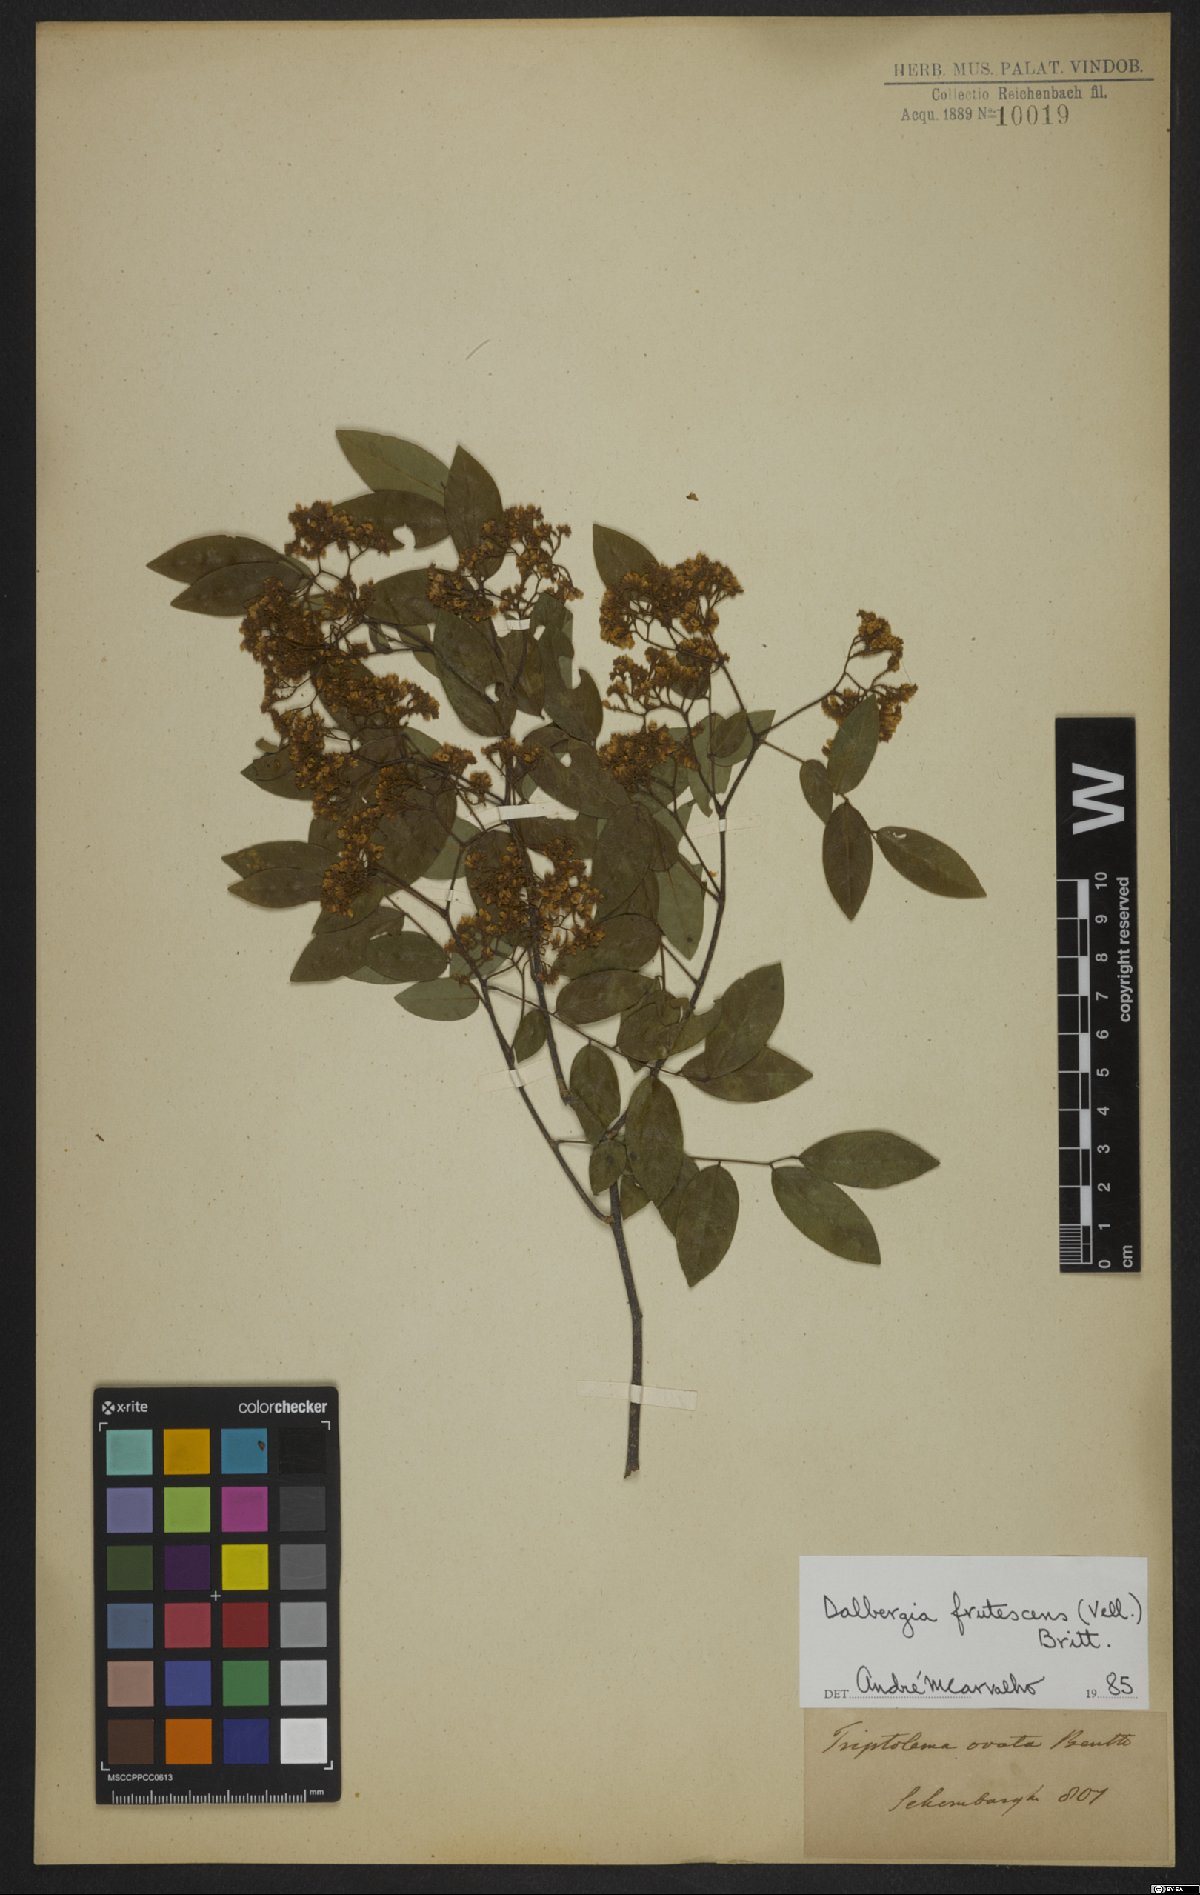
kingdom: Plantae
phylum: Tracheophyta
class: Magnoliopsida
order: Fabales
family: Fabaceae
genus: Dalbergia
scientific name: Dalbergia frutescens
